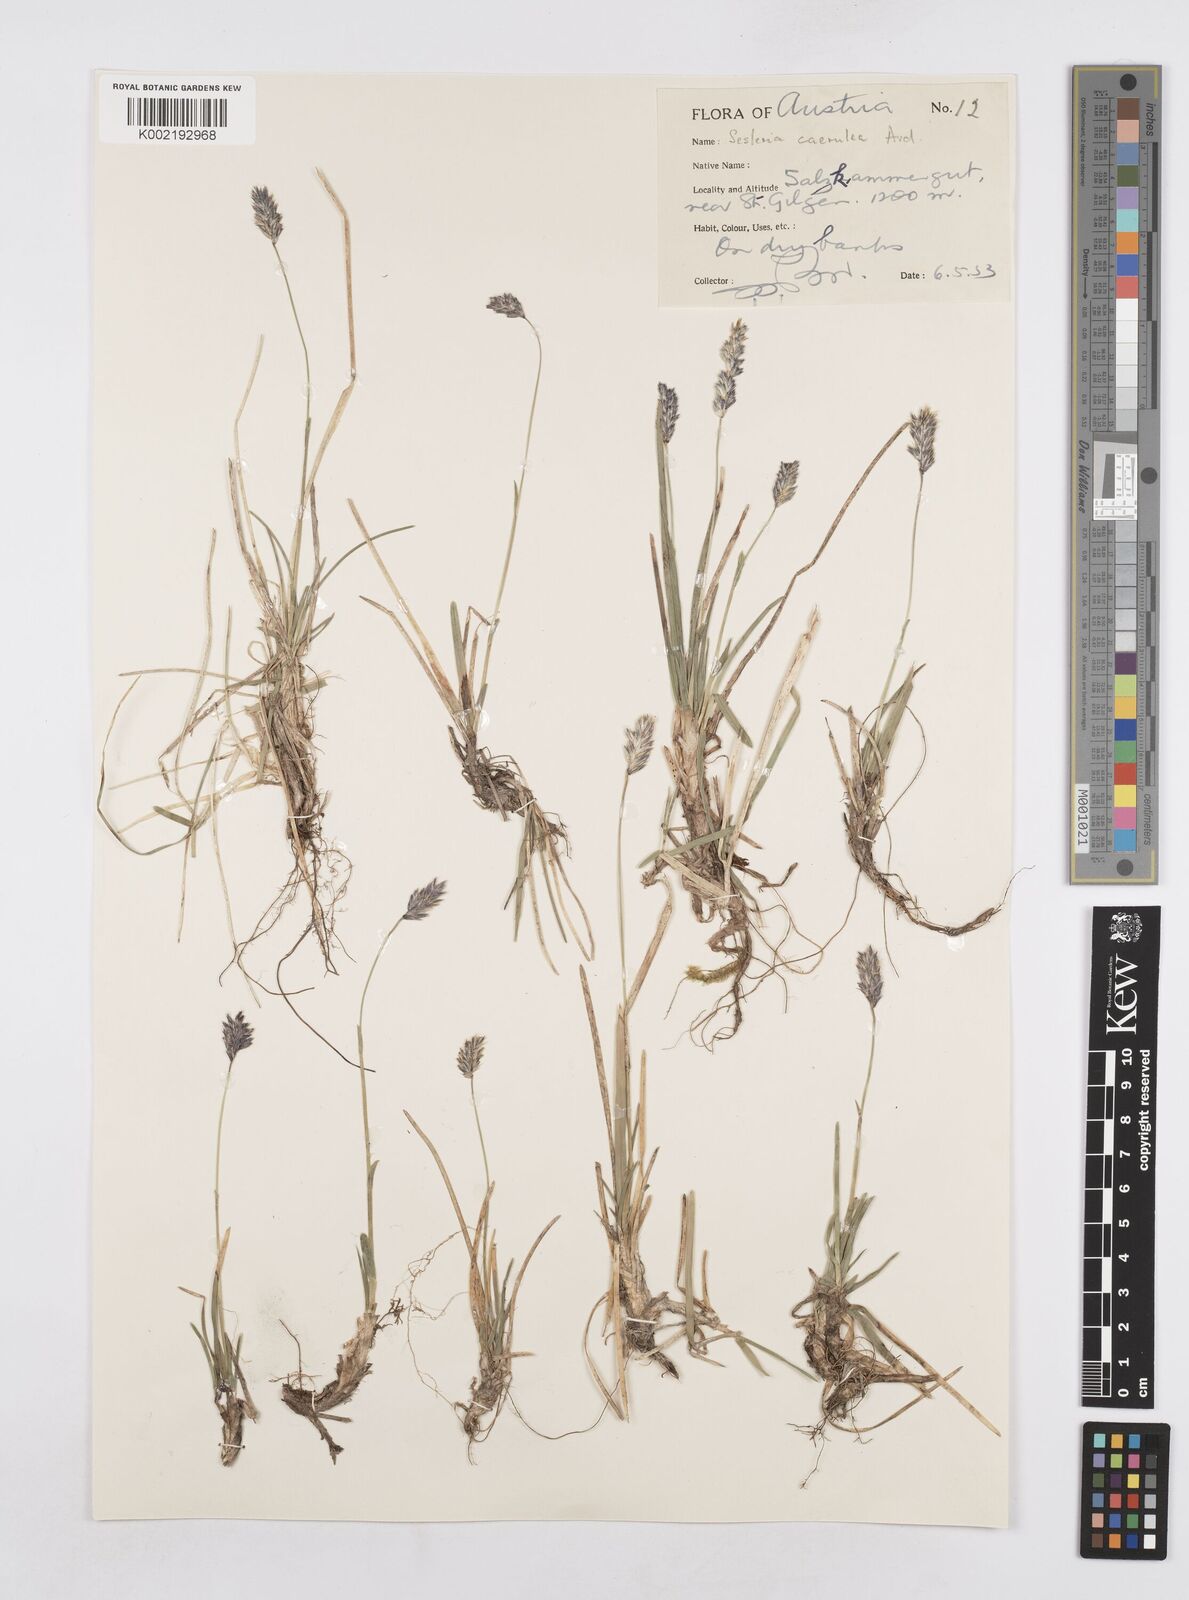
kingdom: Plantae
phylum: Tracheophyta
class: Liliopsida
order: Poales
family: Poaceae
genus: Sesleria
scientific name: Sesleria caerulea
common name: Blue moor-grass
